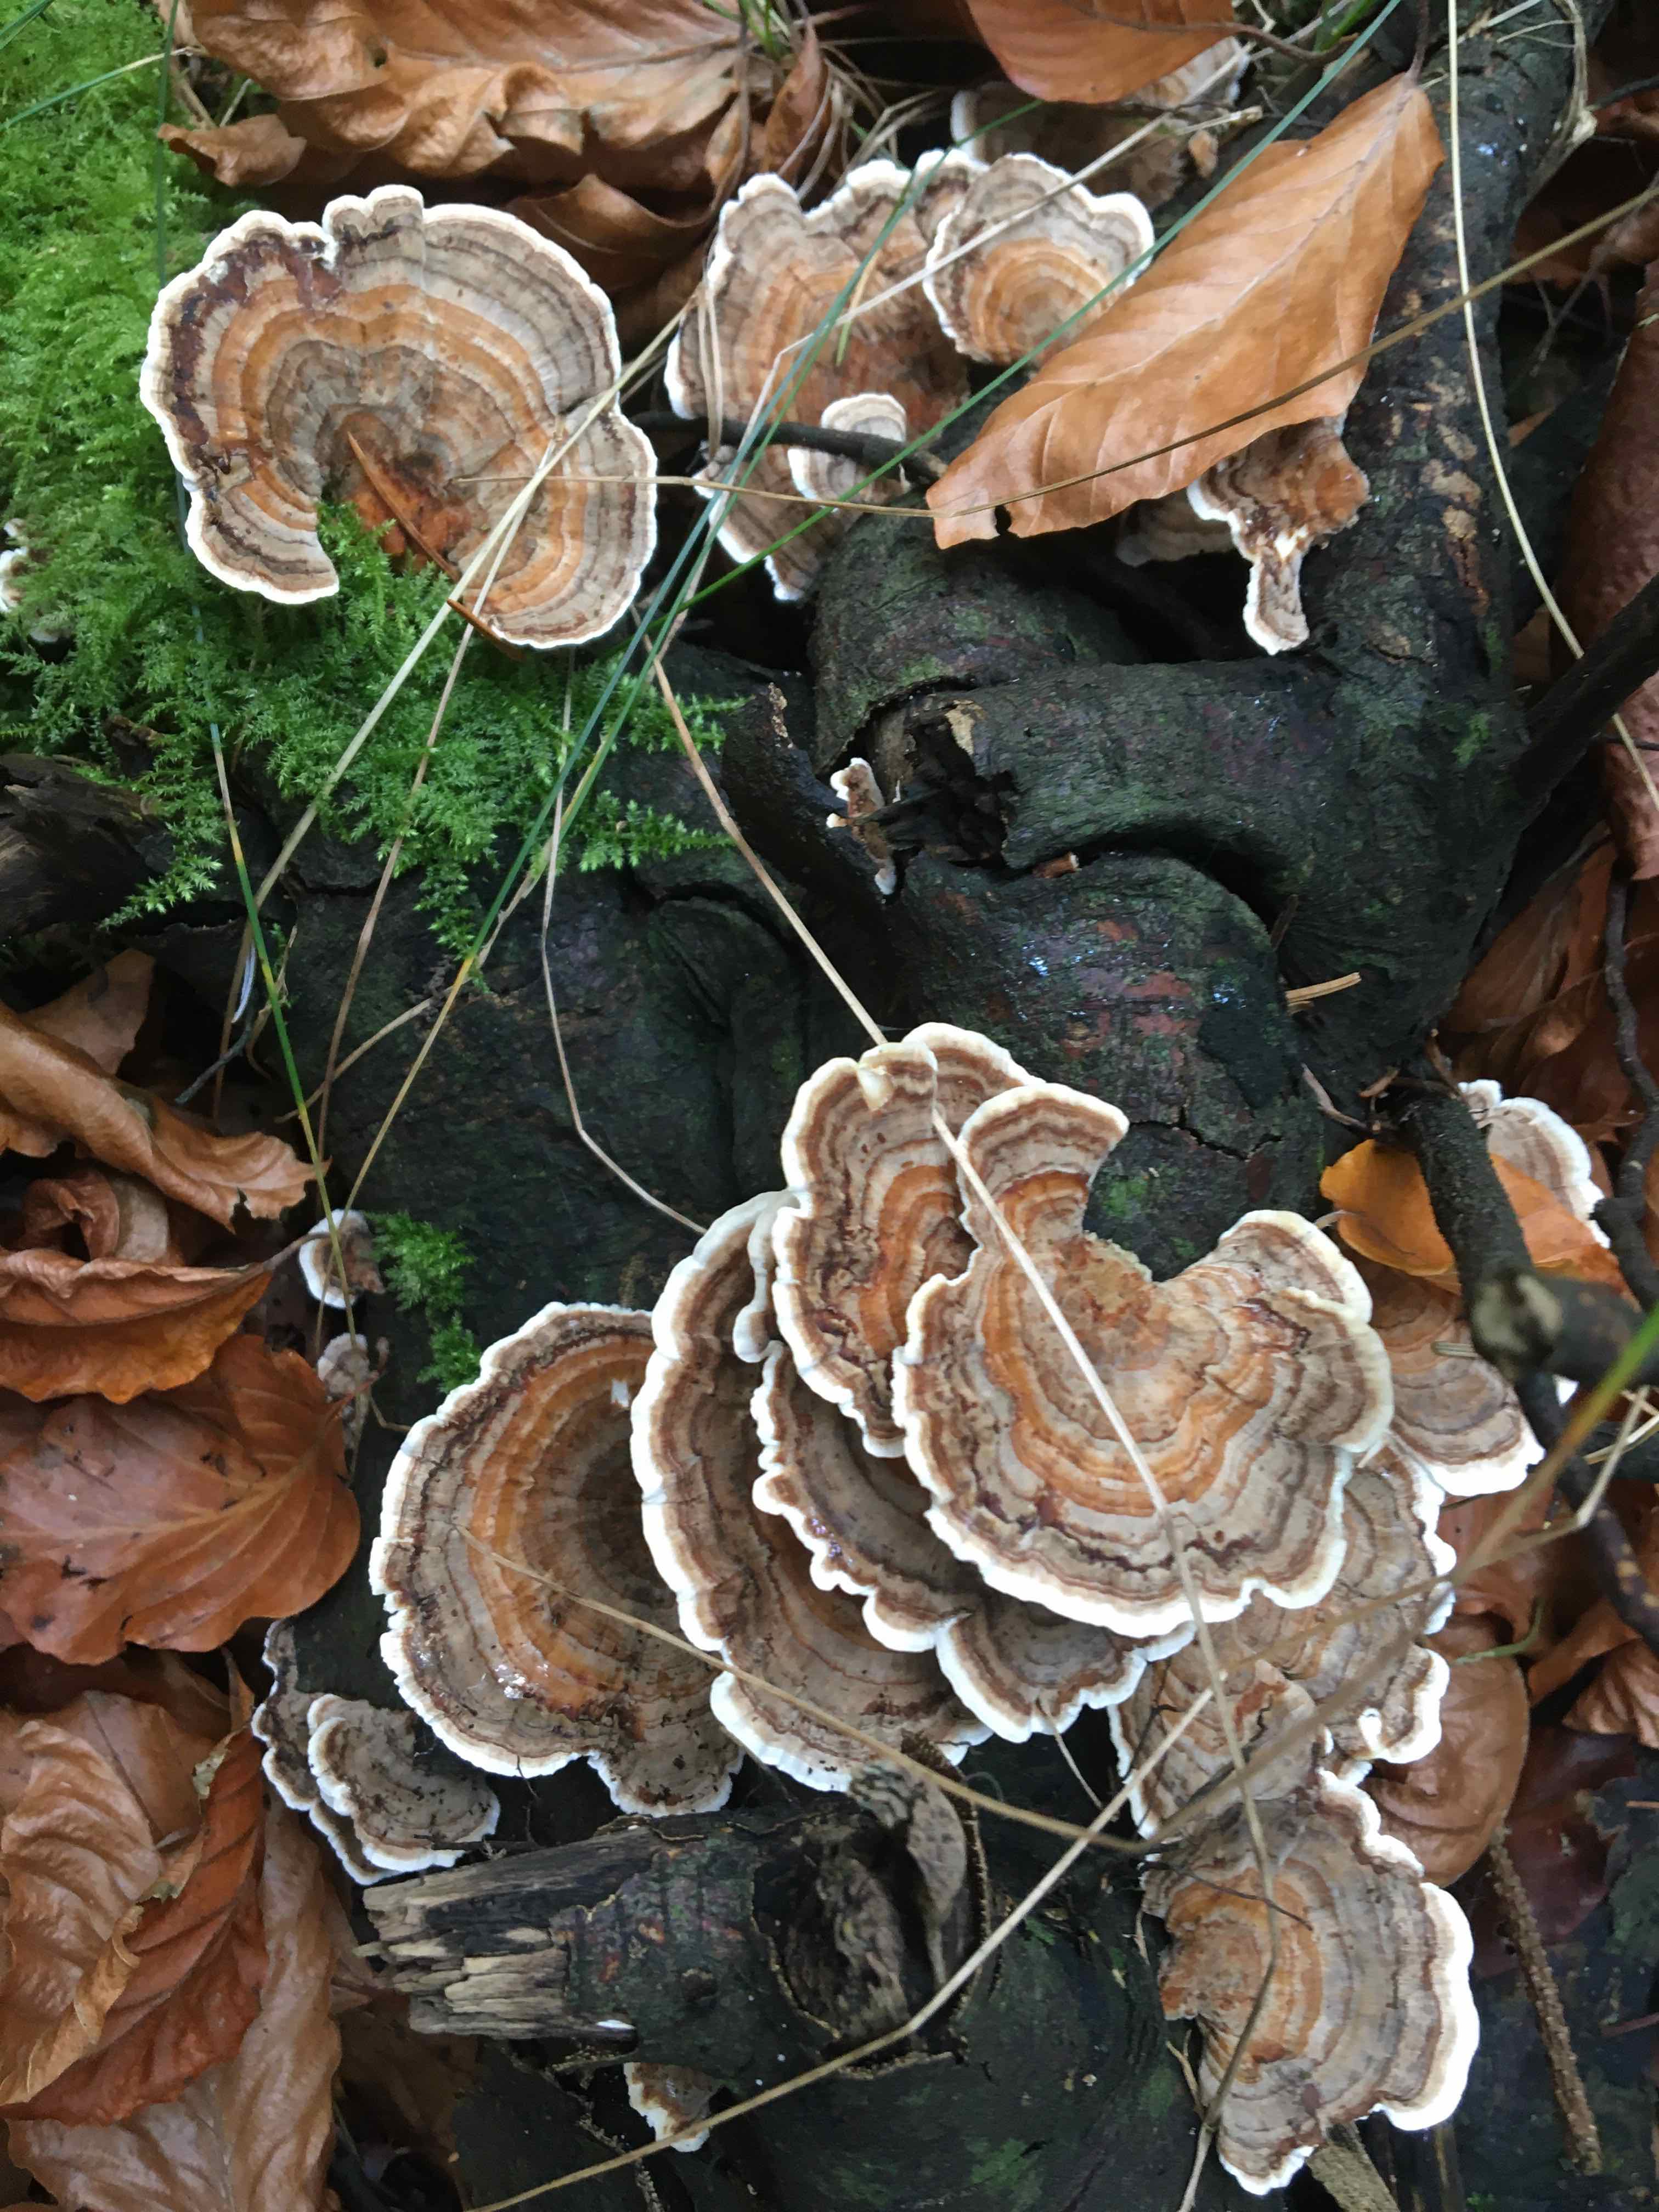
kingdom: Fungi
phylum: Basidiomycota
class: Agaricomycetes
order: Polyporales
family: Polyporaceae
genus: Trametes
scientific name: Trametes versicolor
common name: broget læderporesvamp
